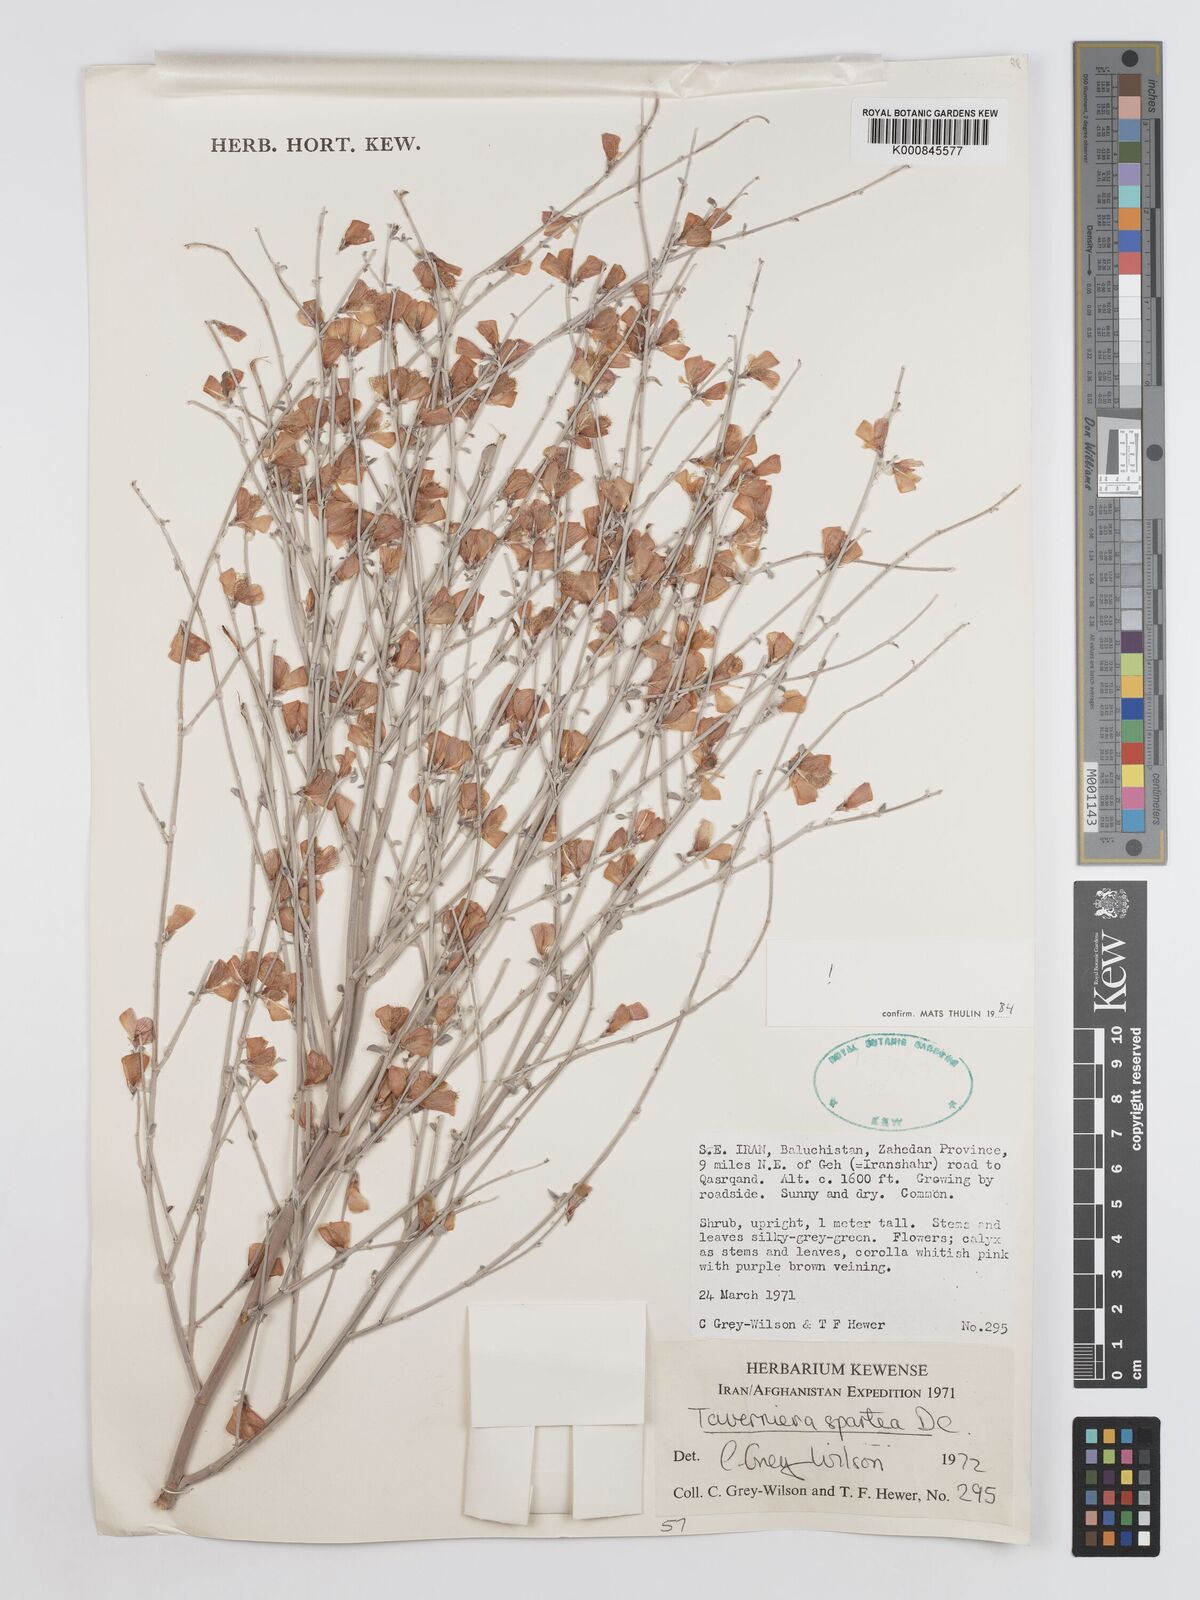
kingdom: Plantae
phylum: Tracheophyta
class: Magnoliopsida
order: Fabales
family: Fabaceae
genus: Taverniera
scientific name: Taverniera spartea
